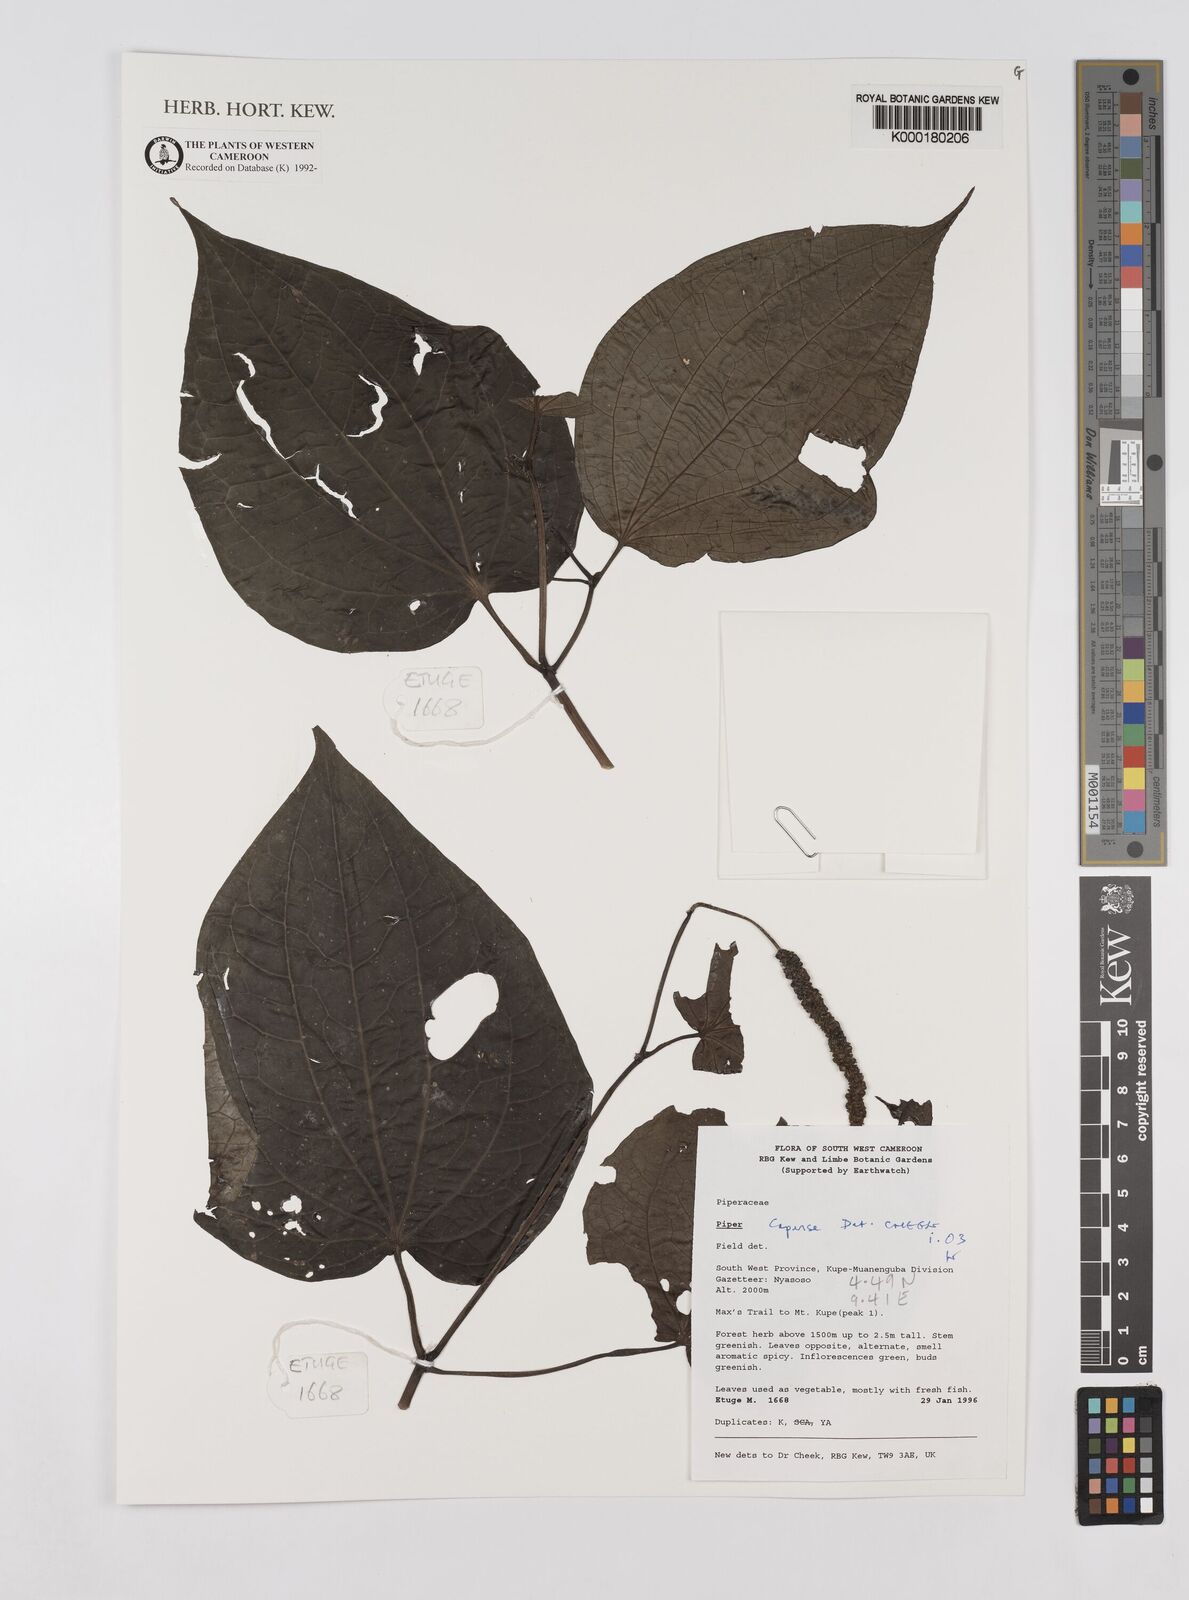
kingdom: Plantae
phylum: Tracheophyta
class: Magnoliopsida
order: Piperales
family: Piperaceae
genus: Piper
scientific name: Piper capense
